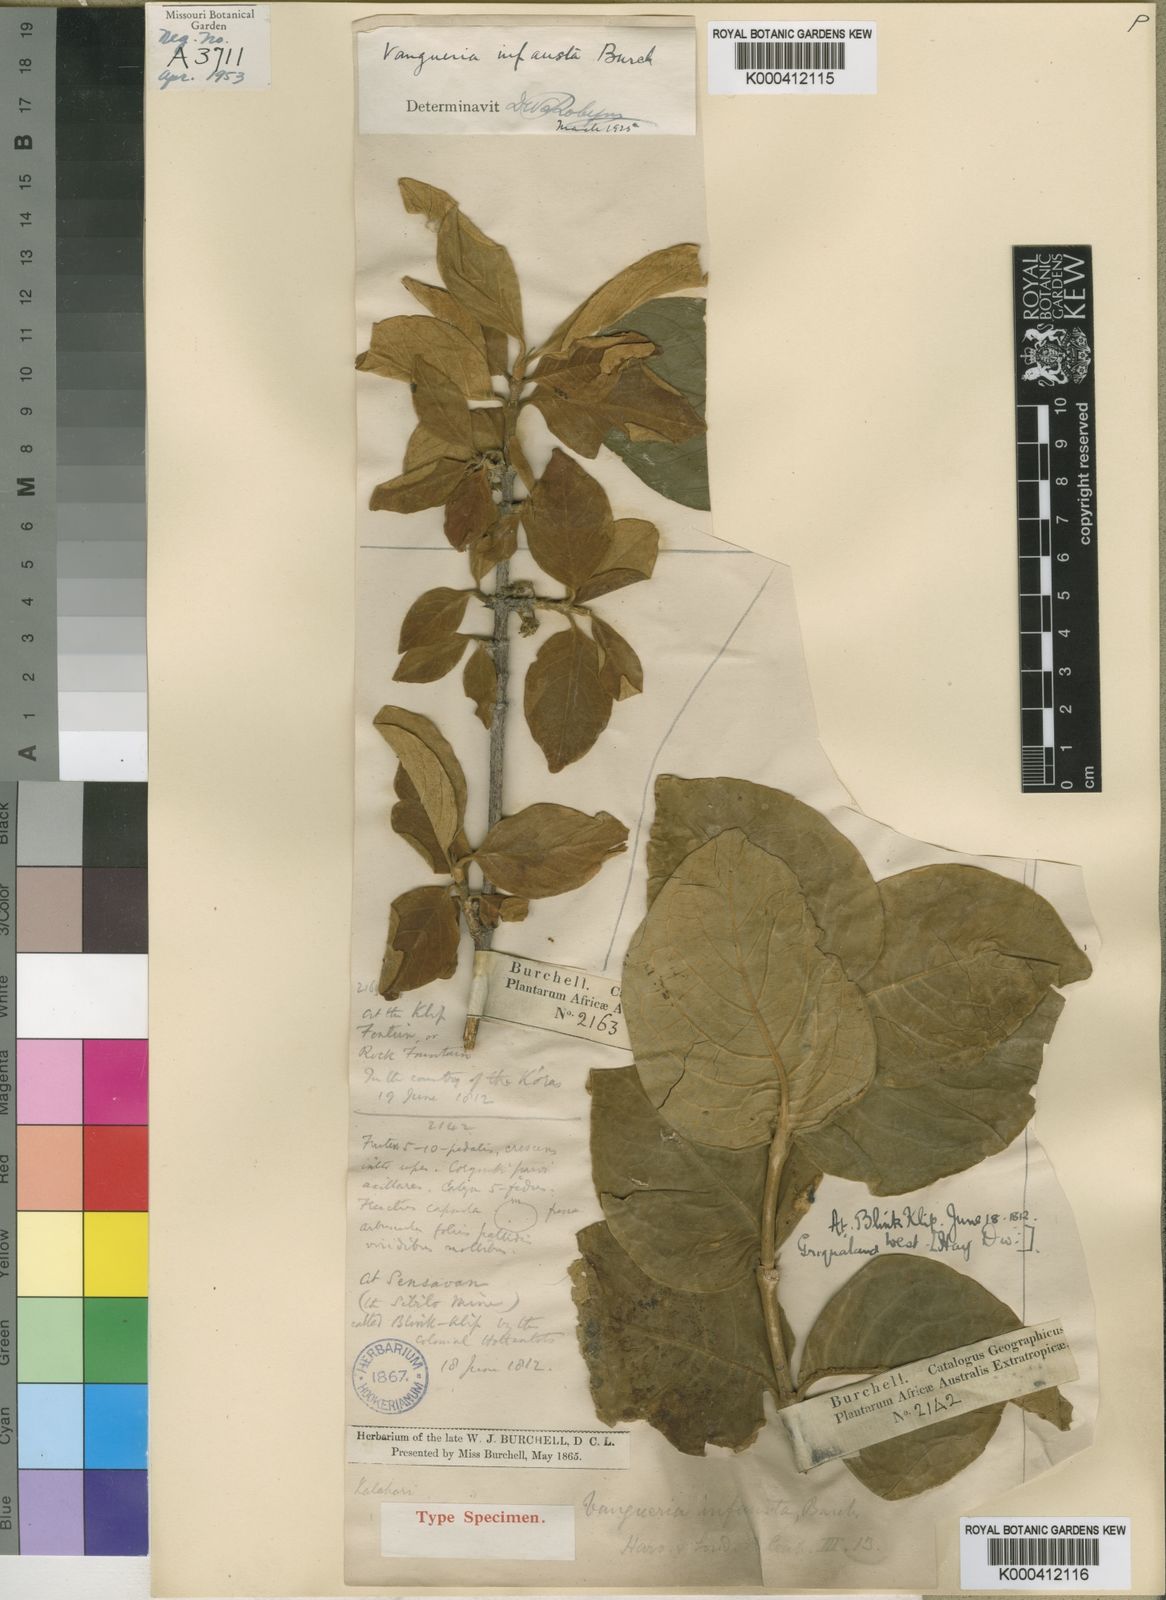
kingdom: Plantae
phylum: Tracheophyta
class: Magnoliopsida
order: Gentianales
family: Rubiaceae
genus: Vangueria
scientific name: Vangueria infausta
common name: Medlar
